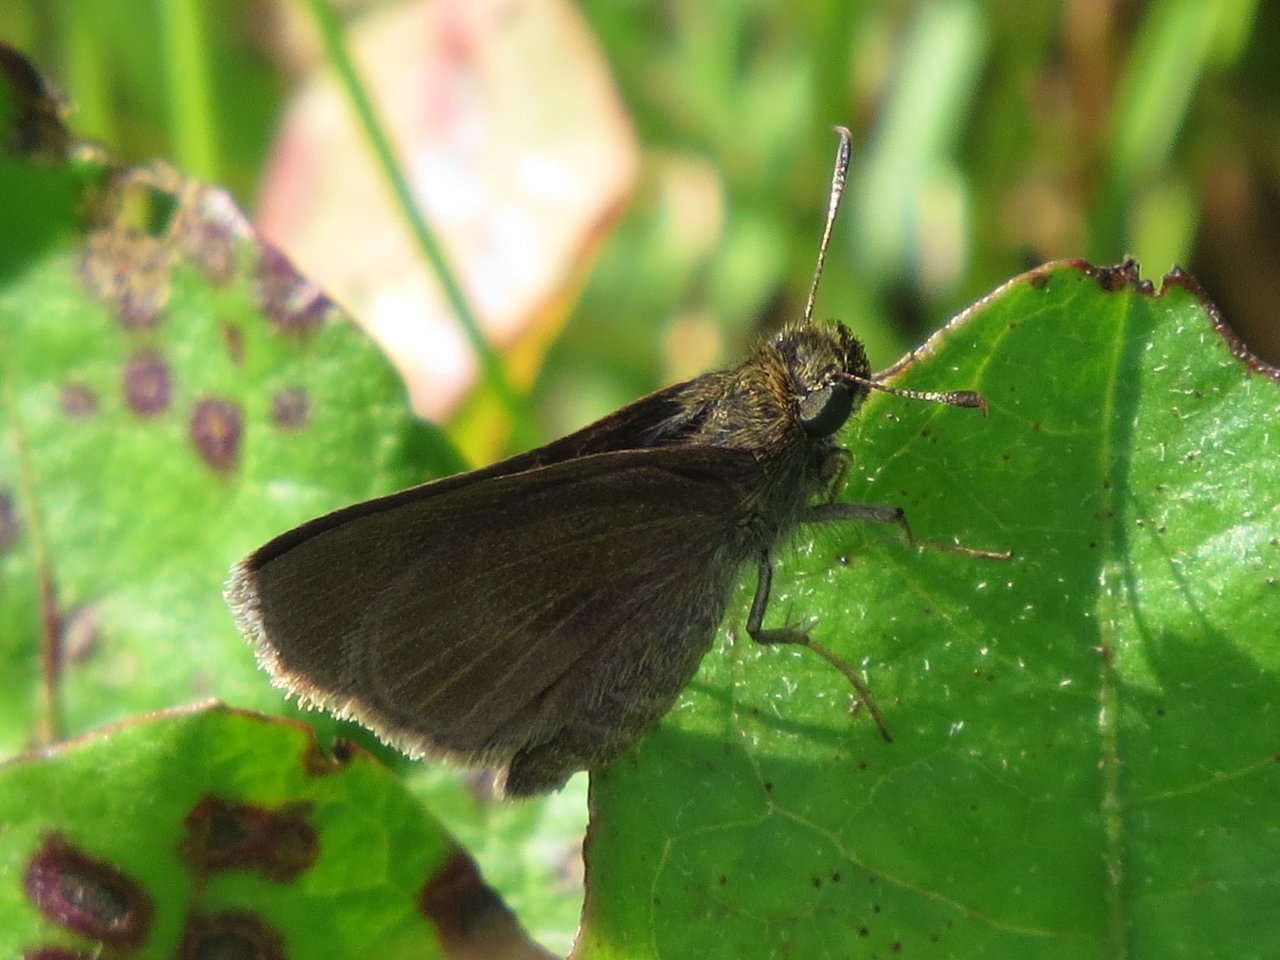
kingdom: Animalia
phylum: Arthropoda
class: Insecta
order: Lepidoptera
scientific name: Lepidoptera
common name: Butterflies
